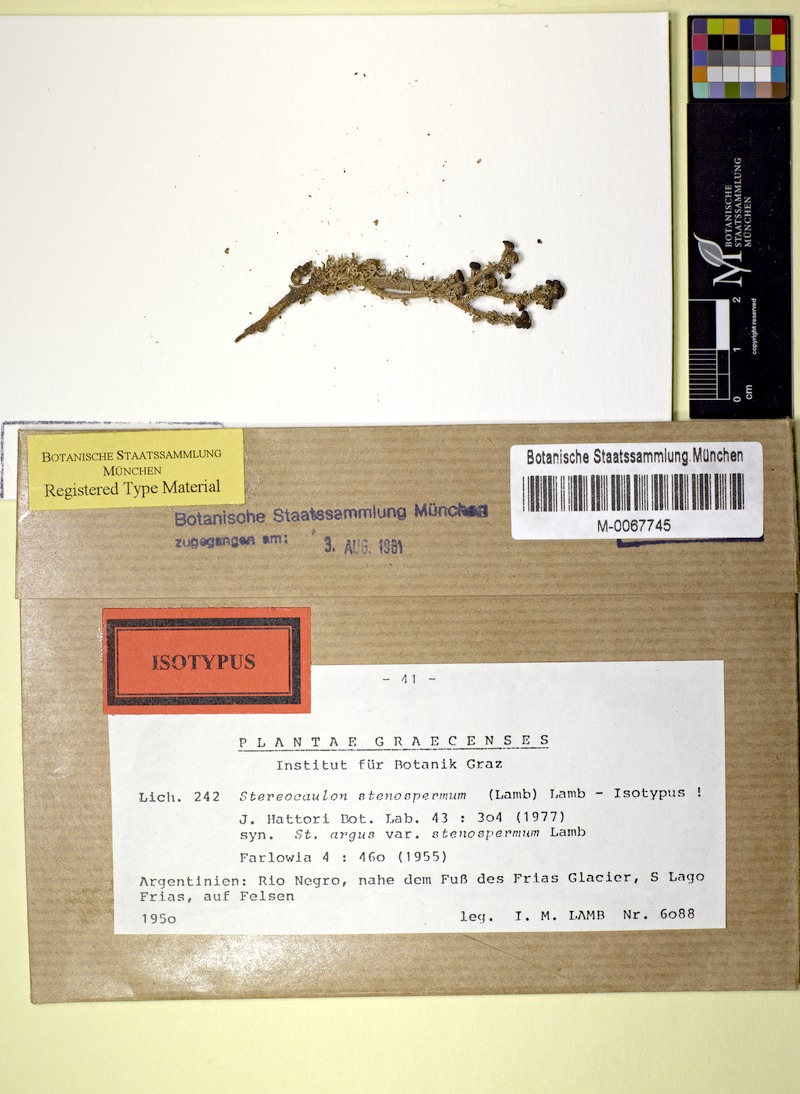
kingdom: Fungi
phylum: Ascomycota
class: Lecanoromycetes
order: Lecanorales
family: Stereocaulaceae
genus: Stereocaulon
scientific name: Stereocaulon stenospermum
